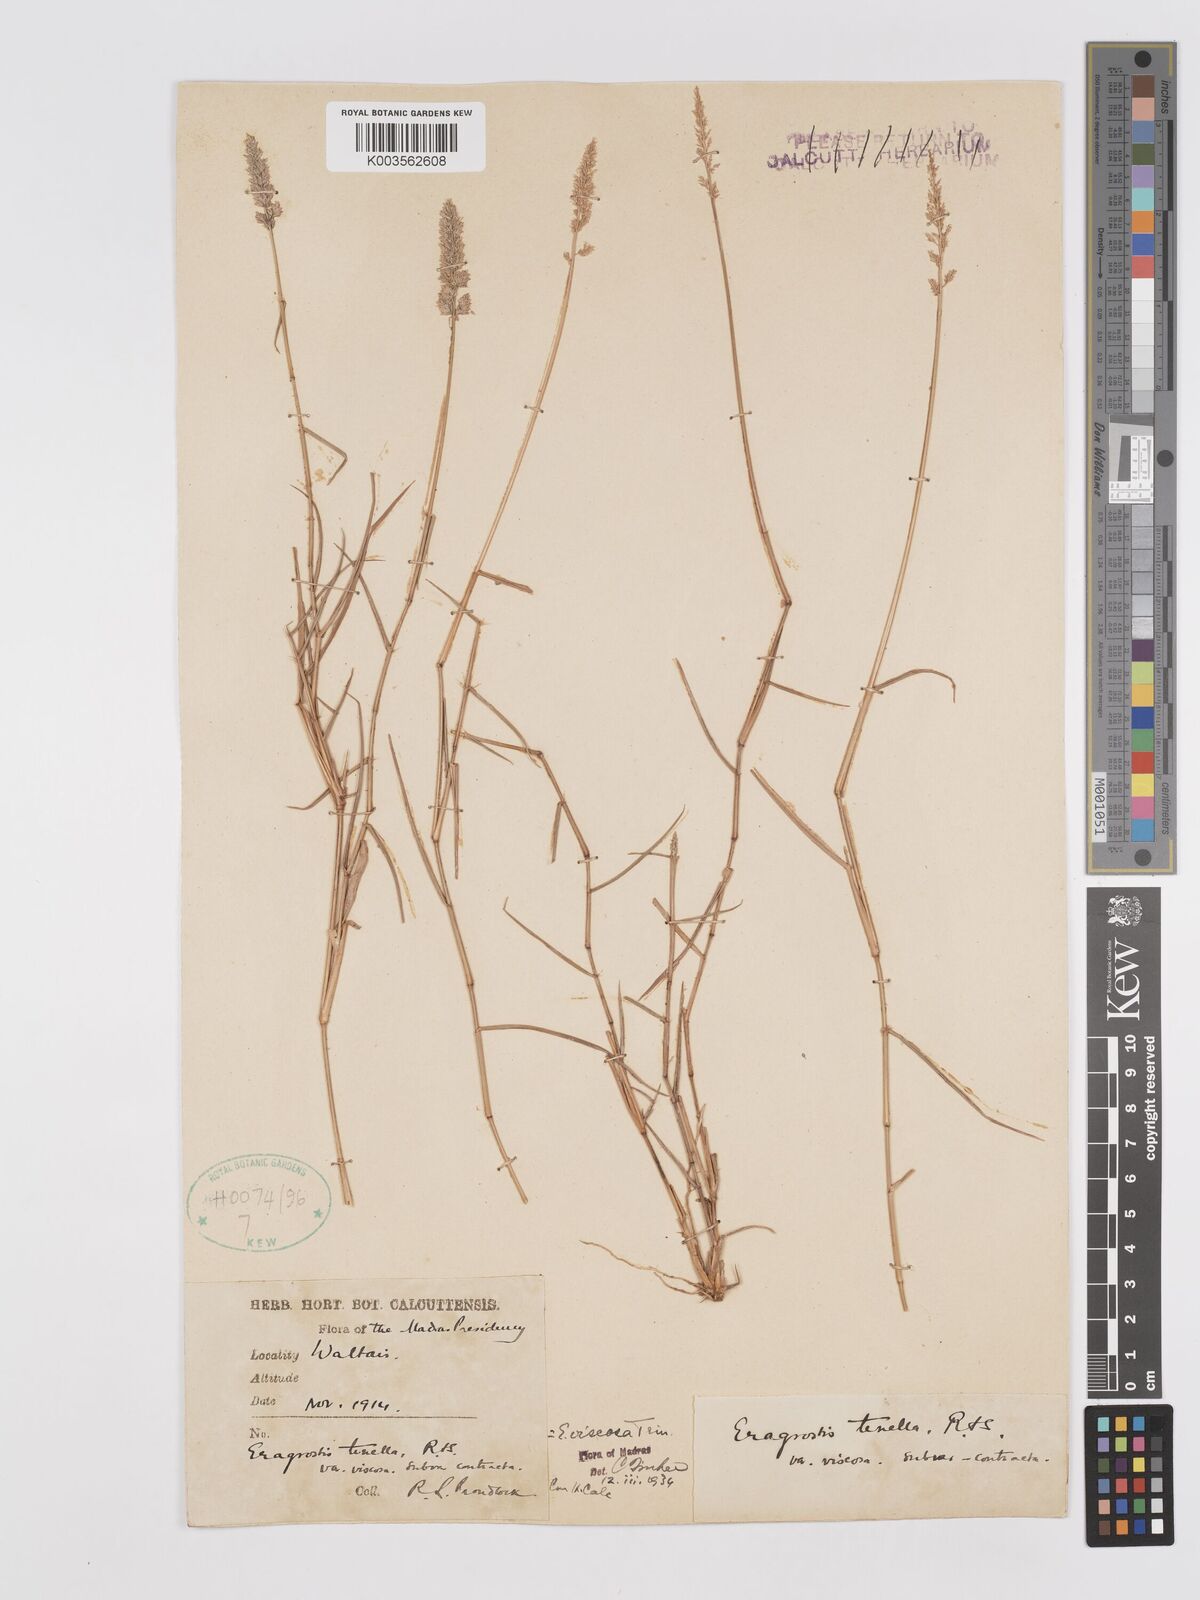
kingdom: Plantae
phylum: Tracheophyta
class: Liliopsida
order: Poales
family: Poaceae
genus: Eragrostis
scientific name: Eragrostis tenella
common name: Japanese lovegrass
